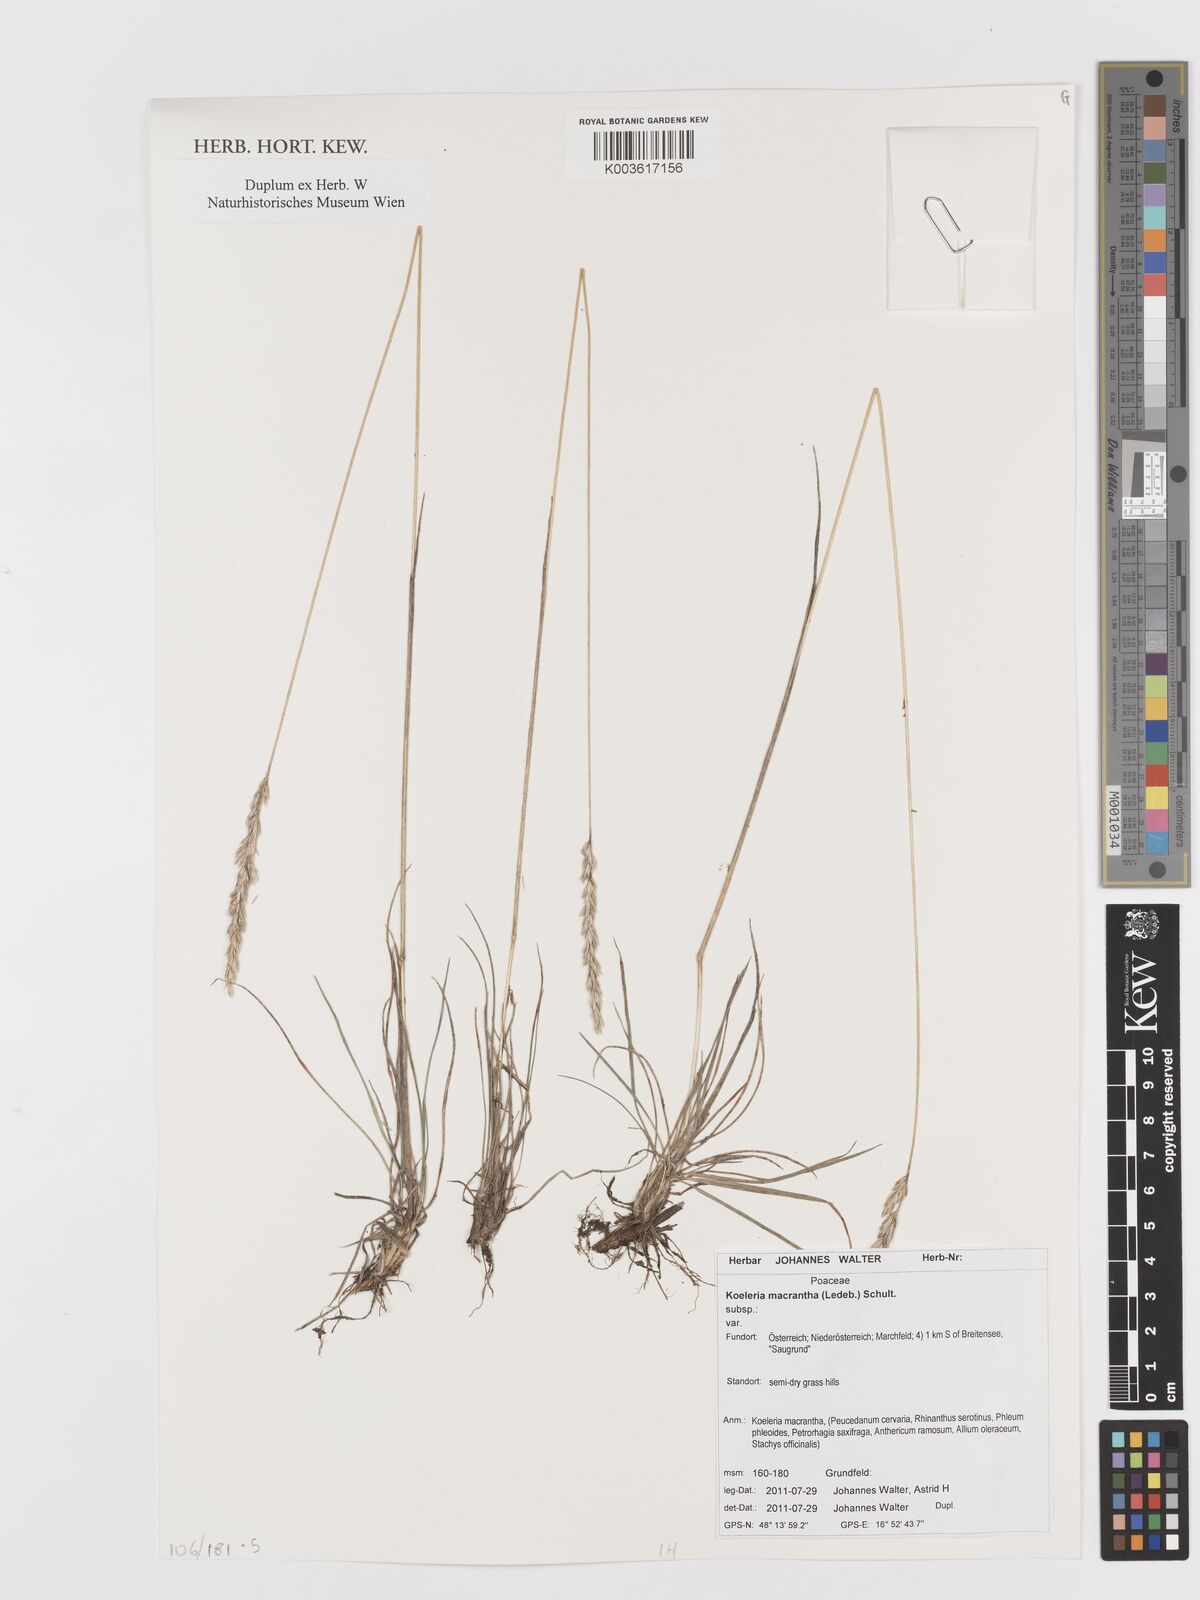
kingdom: Plantae
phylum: Tracheophyta
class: Liliopsida
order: Poales
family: Poaceae
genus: Koeleria
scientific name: Koeleria macrantha
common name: Crested hair-grass
